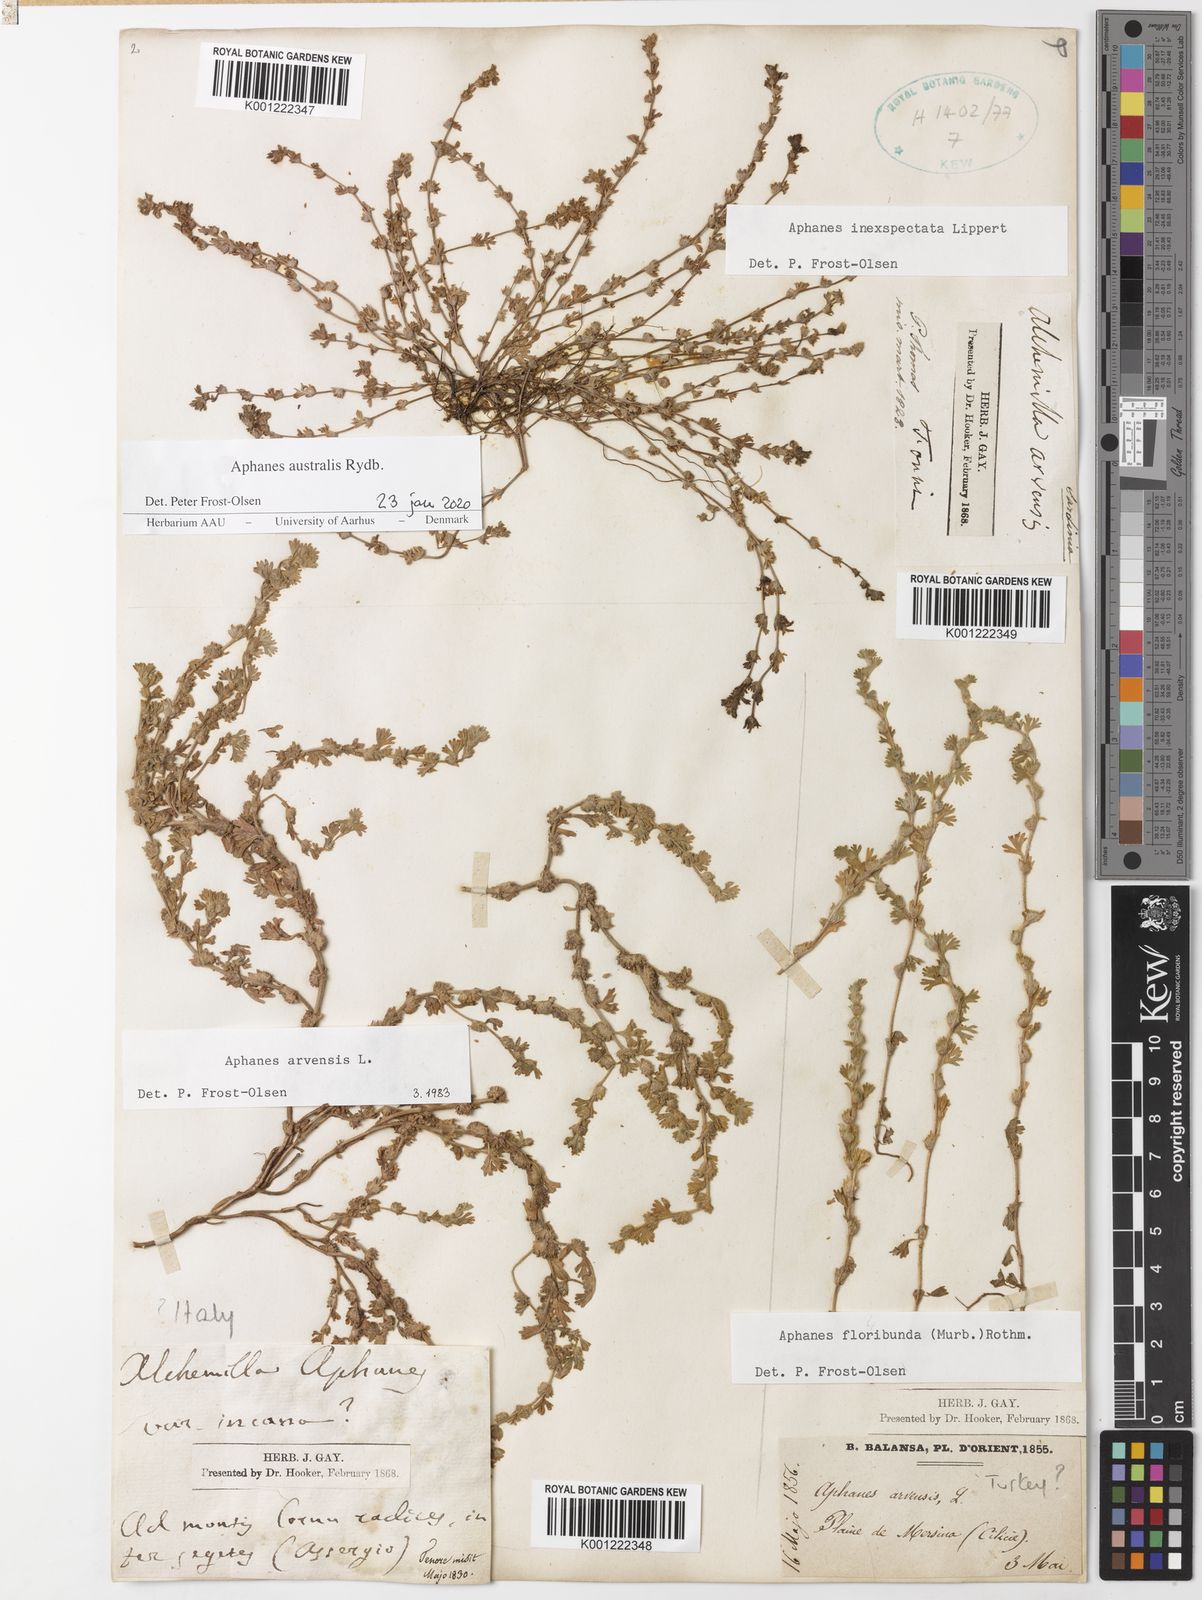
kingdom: Plantae
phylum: Tracheophyta
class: Magnoliopsida
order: Rosales
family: Rosaceae
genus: Aphanes
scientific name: Aphanes australis
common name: Slender parsley-piert
